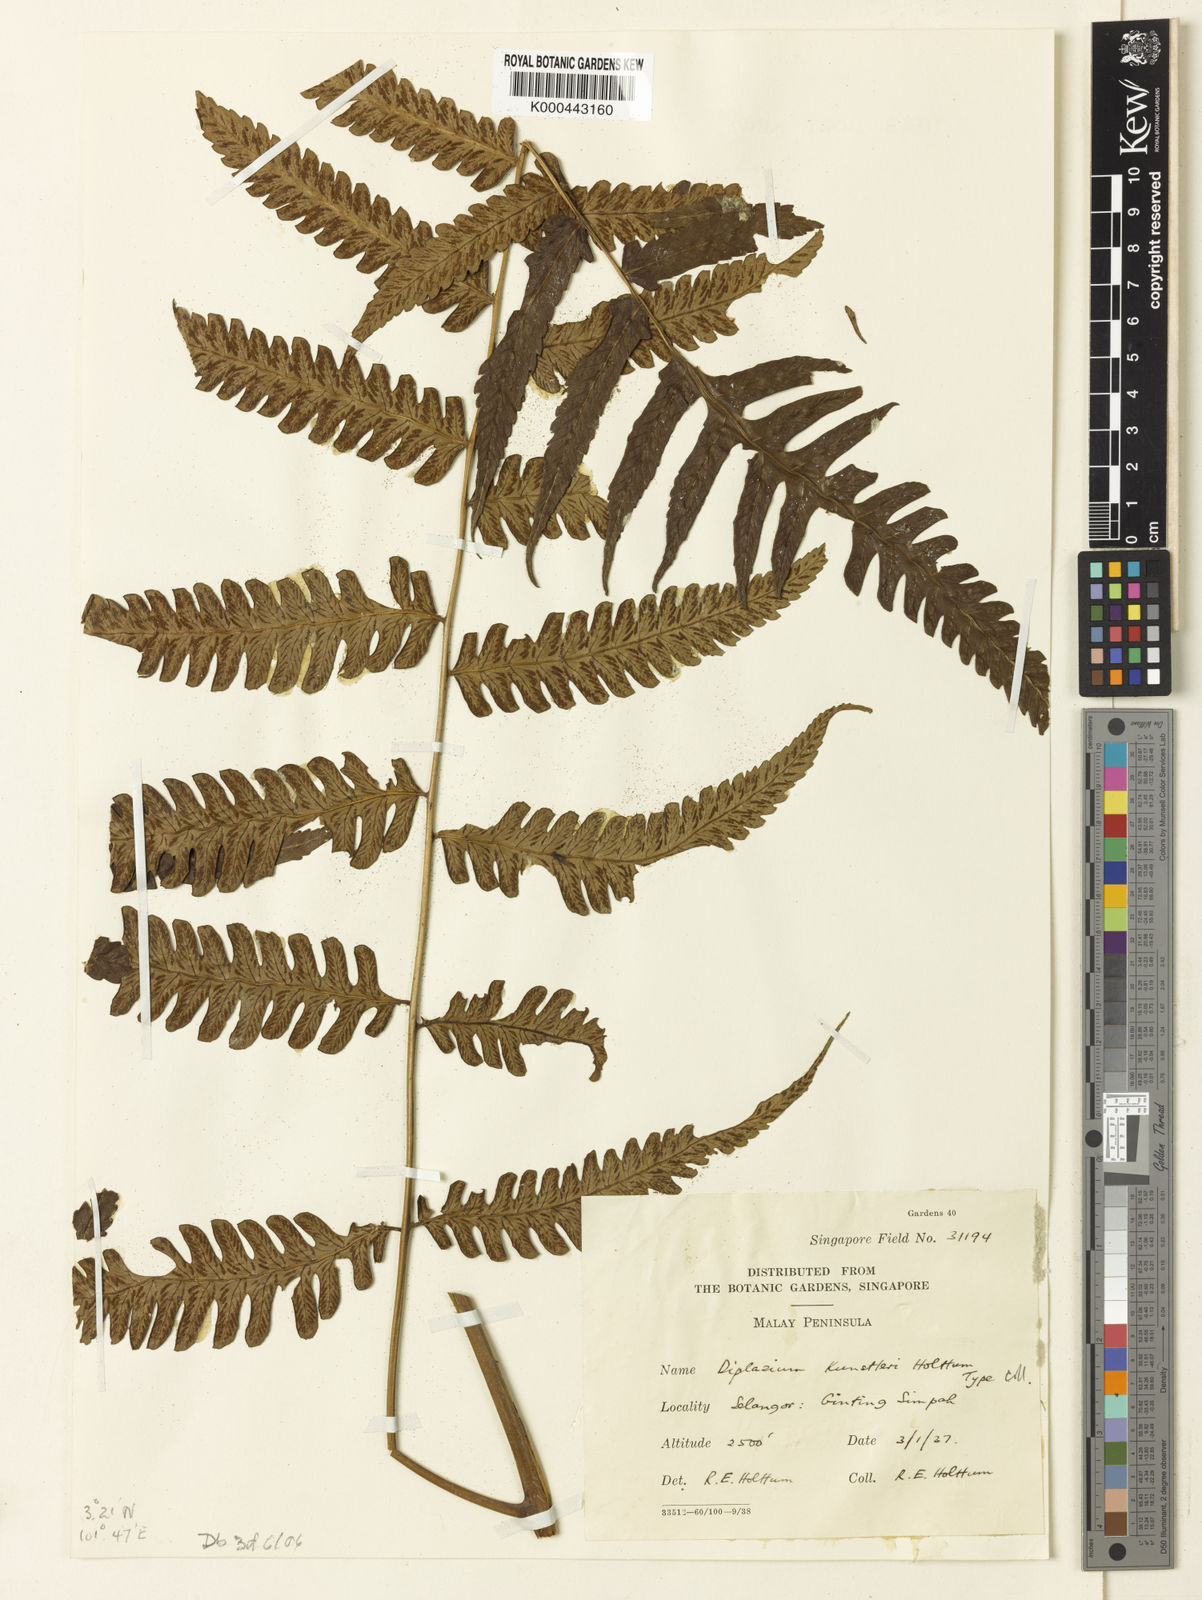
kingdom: Plantae
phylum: Tracheophyta
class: Polypodiopsida
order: Polypodiales
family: Athyriaceae
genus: Diplazium
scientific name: Diplazium kunstleri
